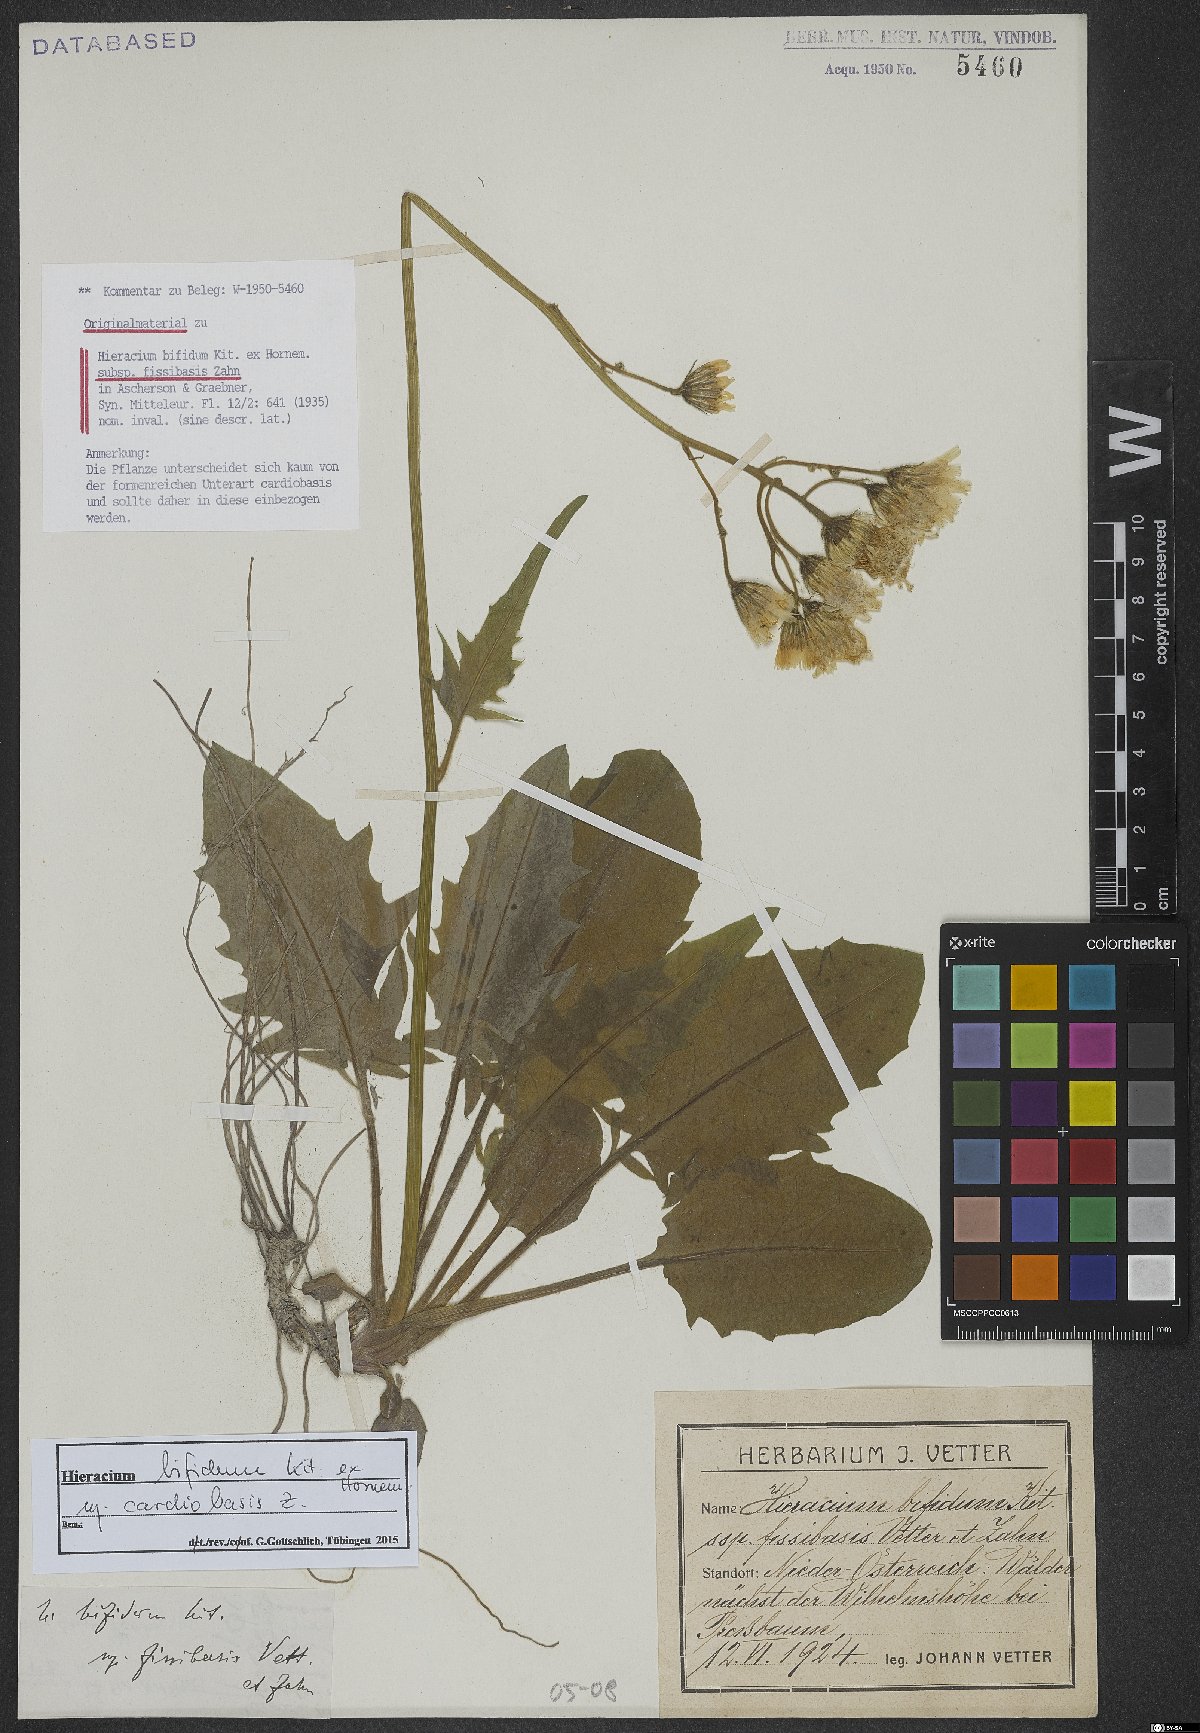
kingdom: Plantae
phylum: Tracheophyta
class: Magnoliopsida
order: Asterales
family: Asteraceae
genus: Hieracium
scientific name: Hieracium bifidum
